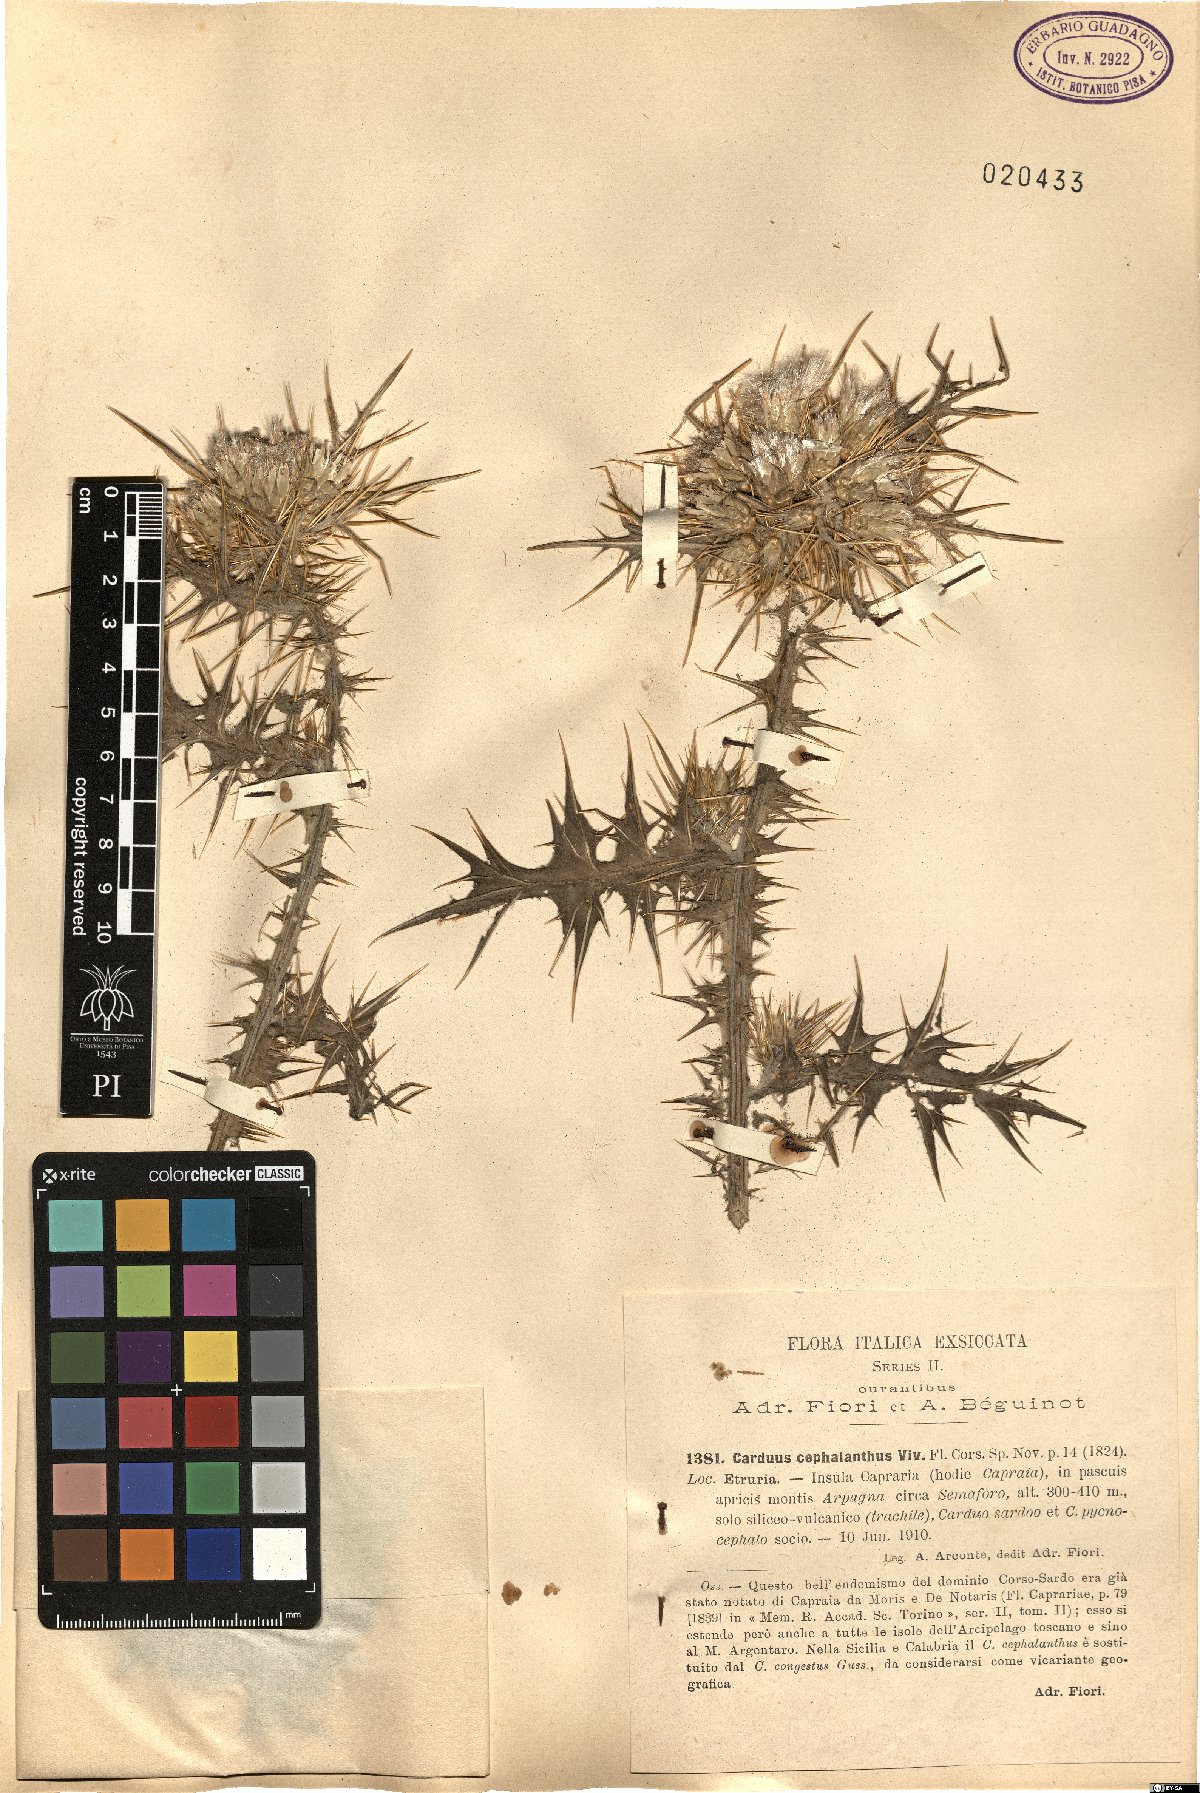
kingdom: Plantae
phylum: Tracheophyta
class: Magnoliopsida
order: Asterales
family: Asteraceae
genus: Carduus
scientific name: Carduus cephalanthus
